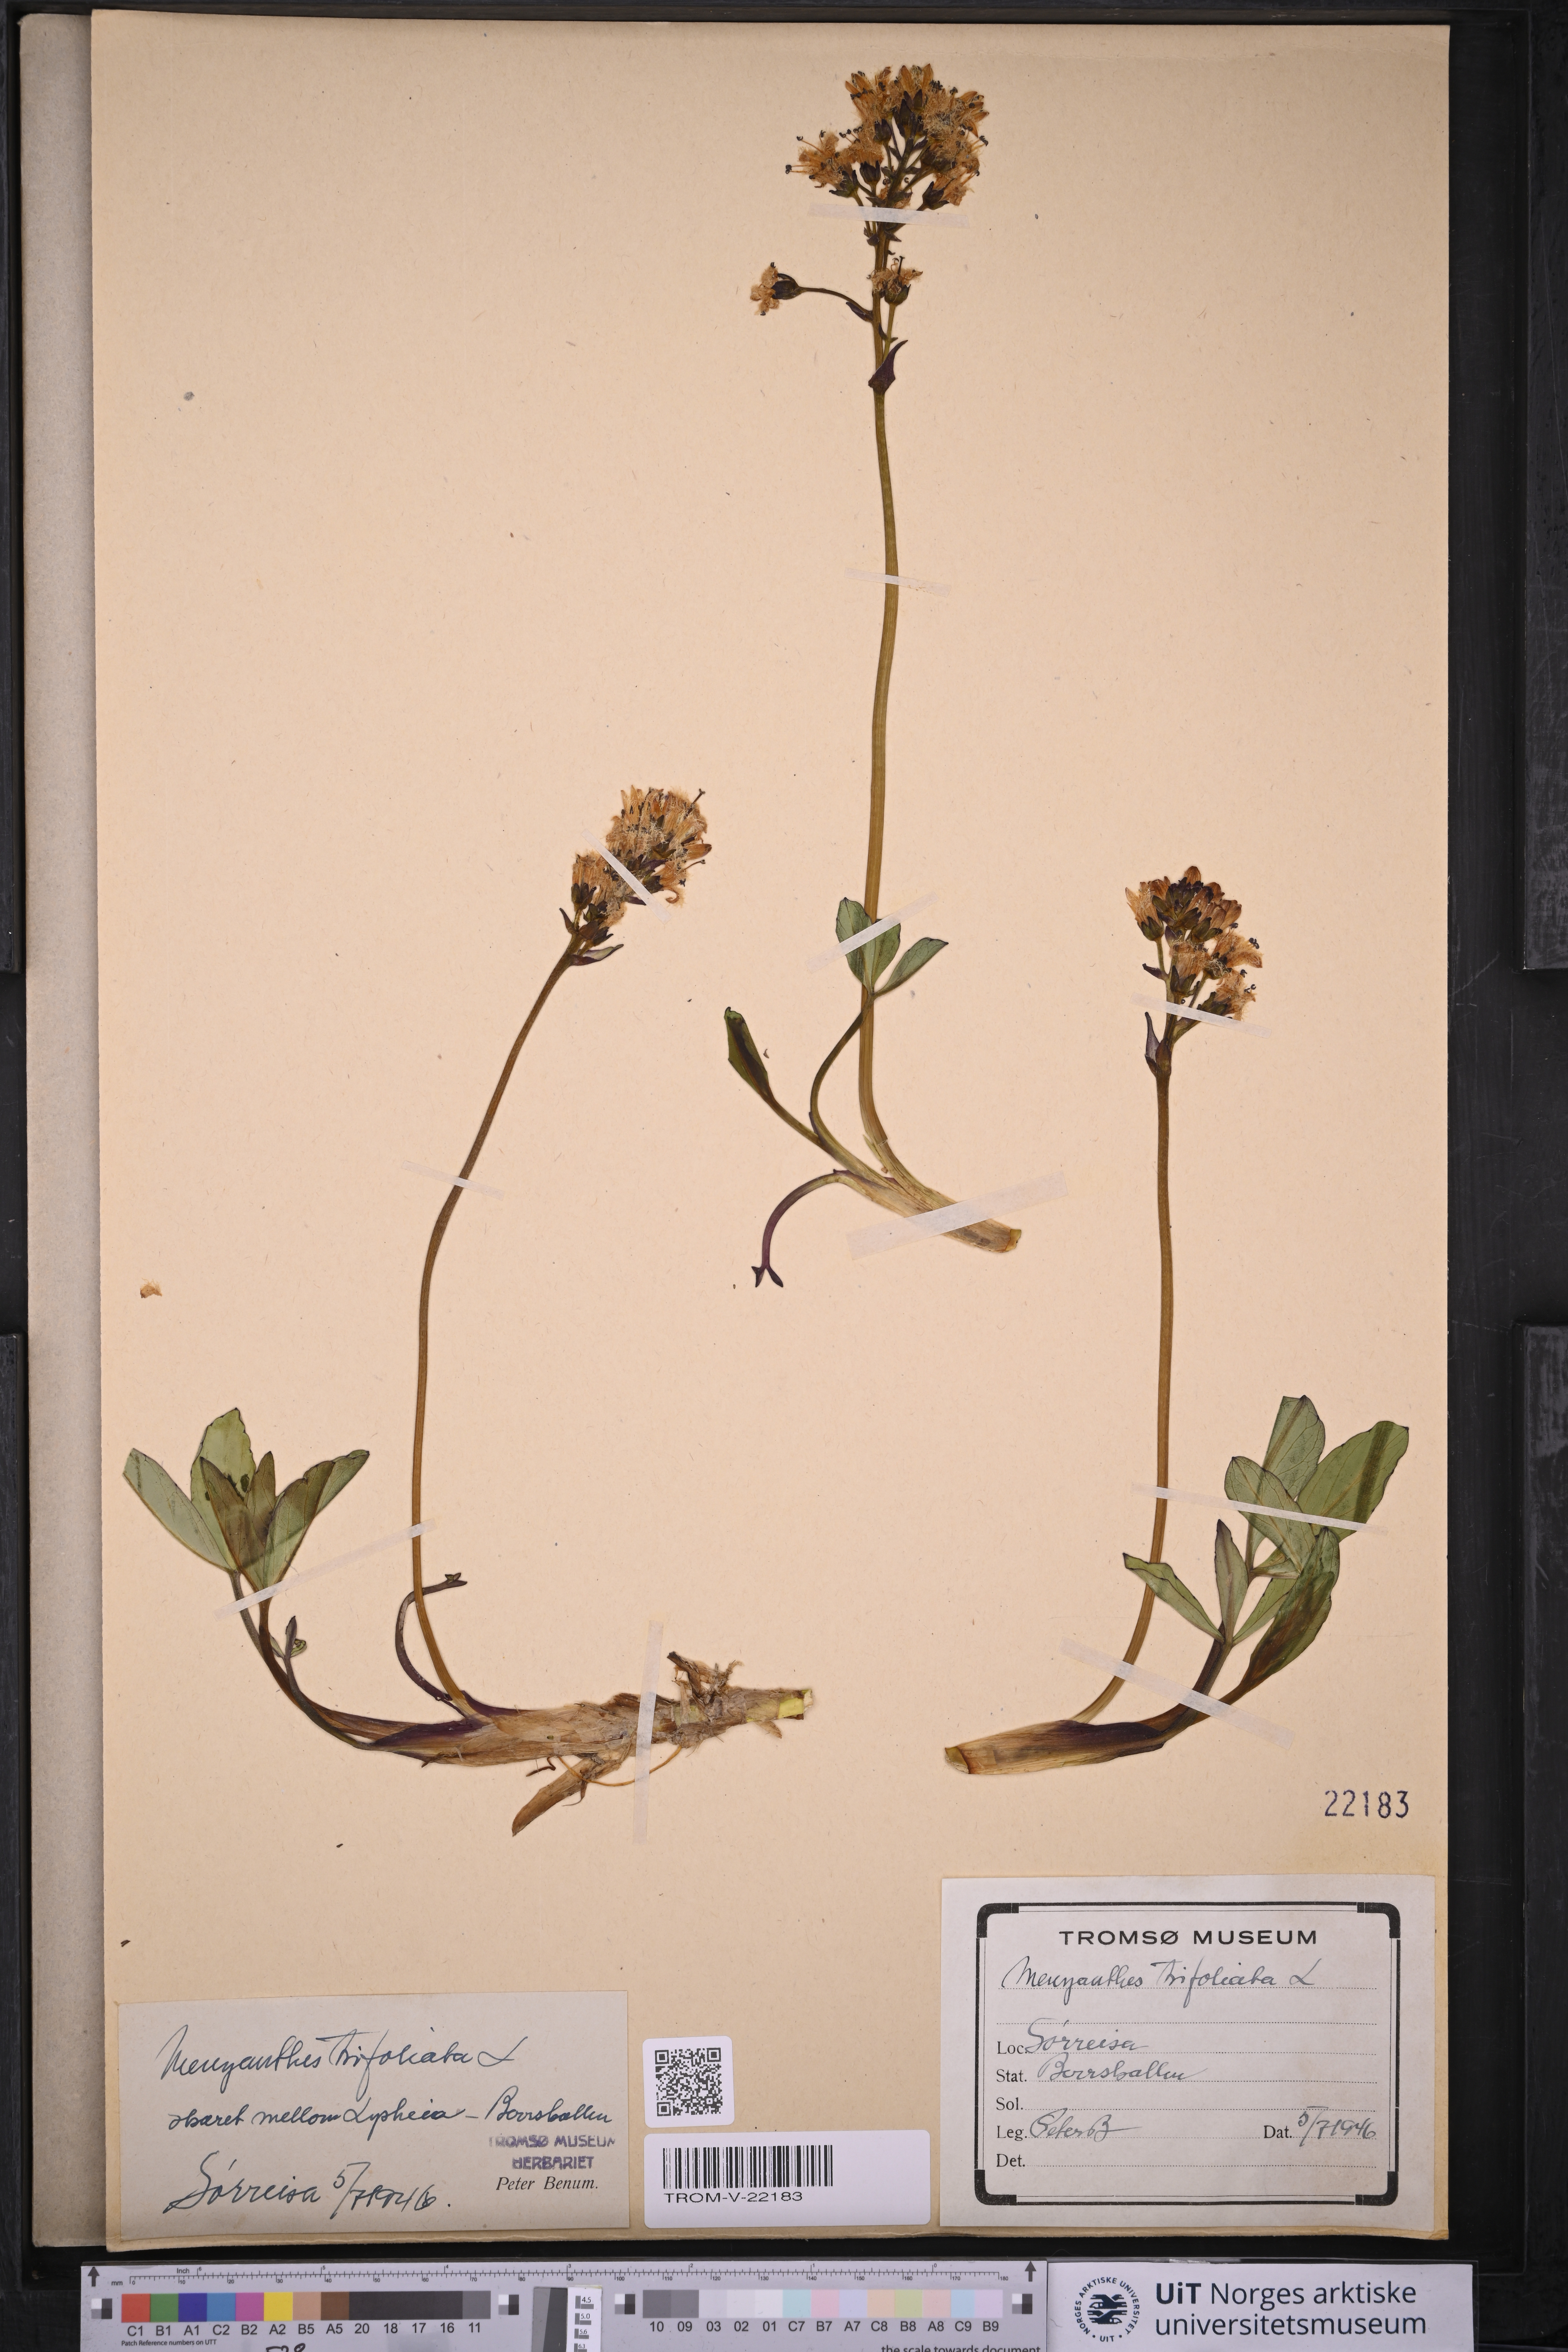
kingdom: Plantae
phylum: Tracheophyta
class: Magnoliopsida
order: Asterales
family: Menyanthaceae
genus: Menyanthes
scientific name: Menyanthes trifoliata
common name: Bogbean
